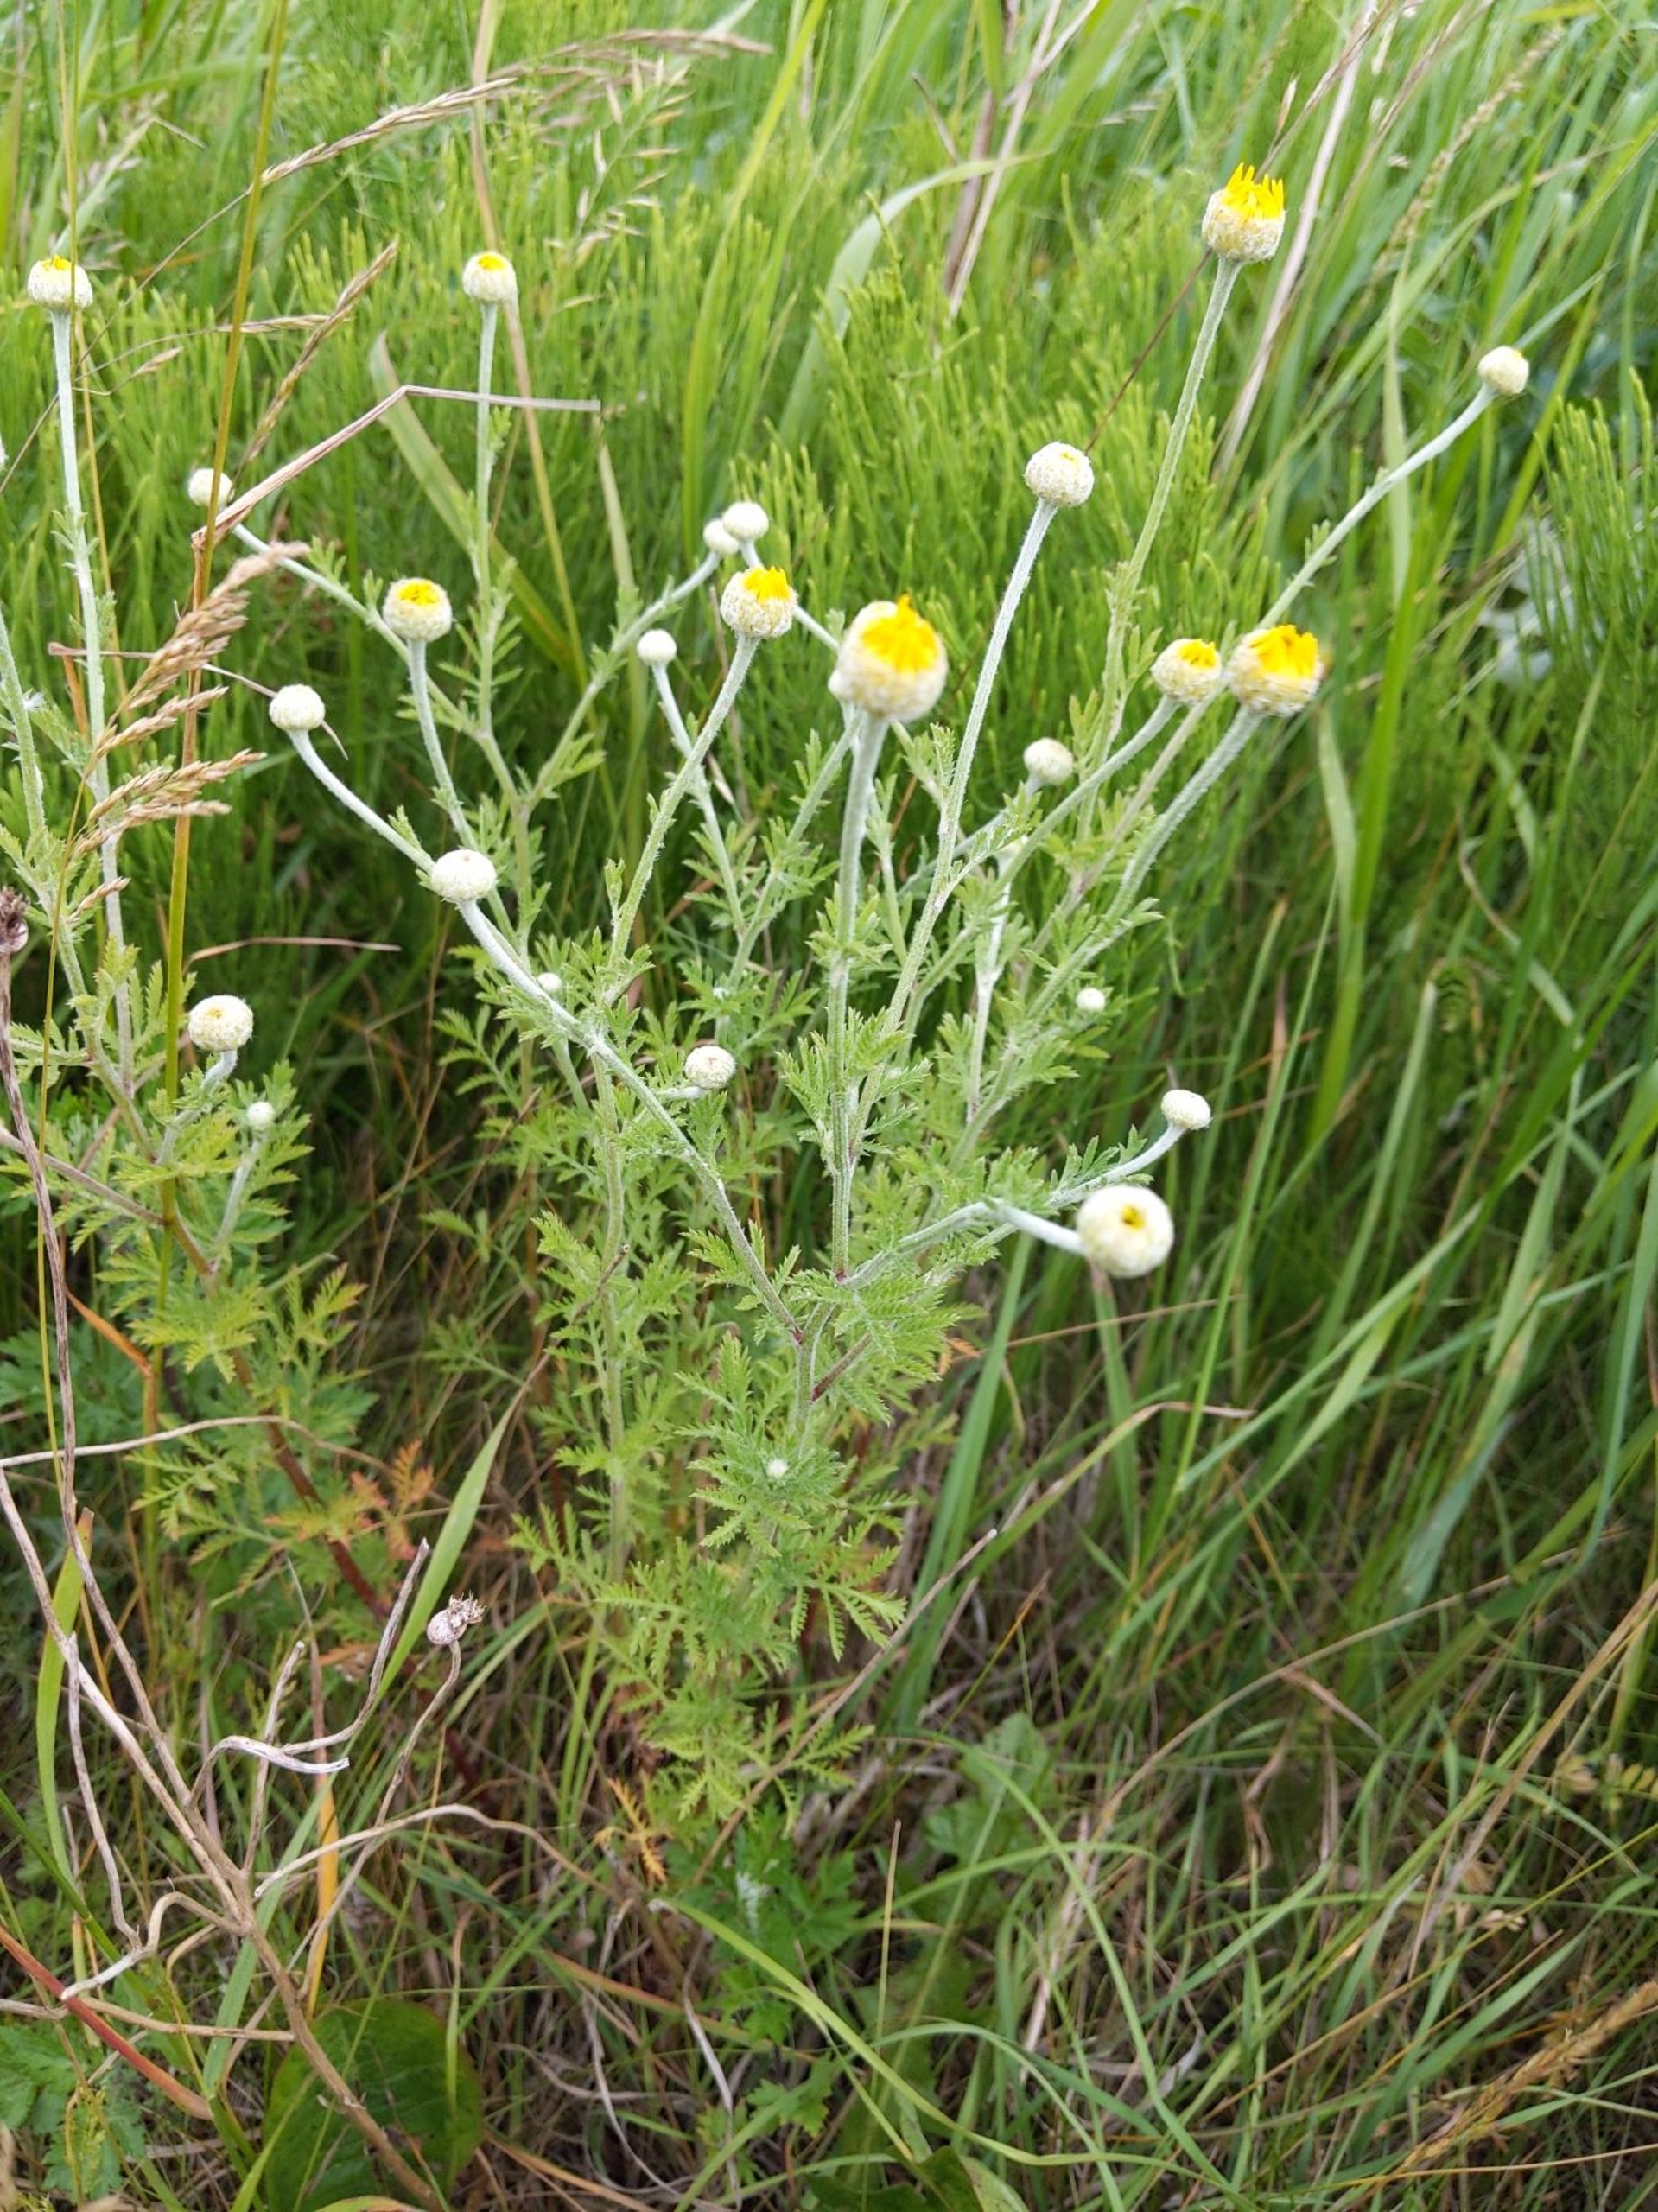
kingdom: Plantae
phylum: Tracheophyta
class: Magnoliopsida
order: Asterales
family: Asteraceae
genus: Cota
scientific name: Cota tinctoria
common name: Farve-gåseurt
